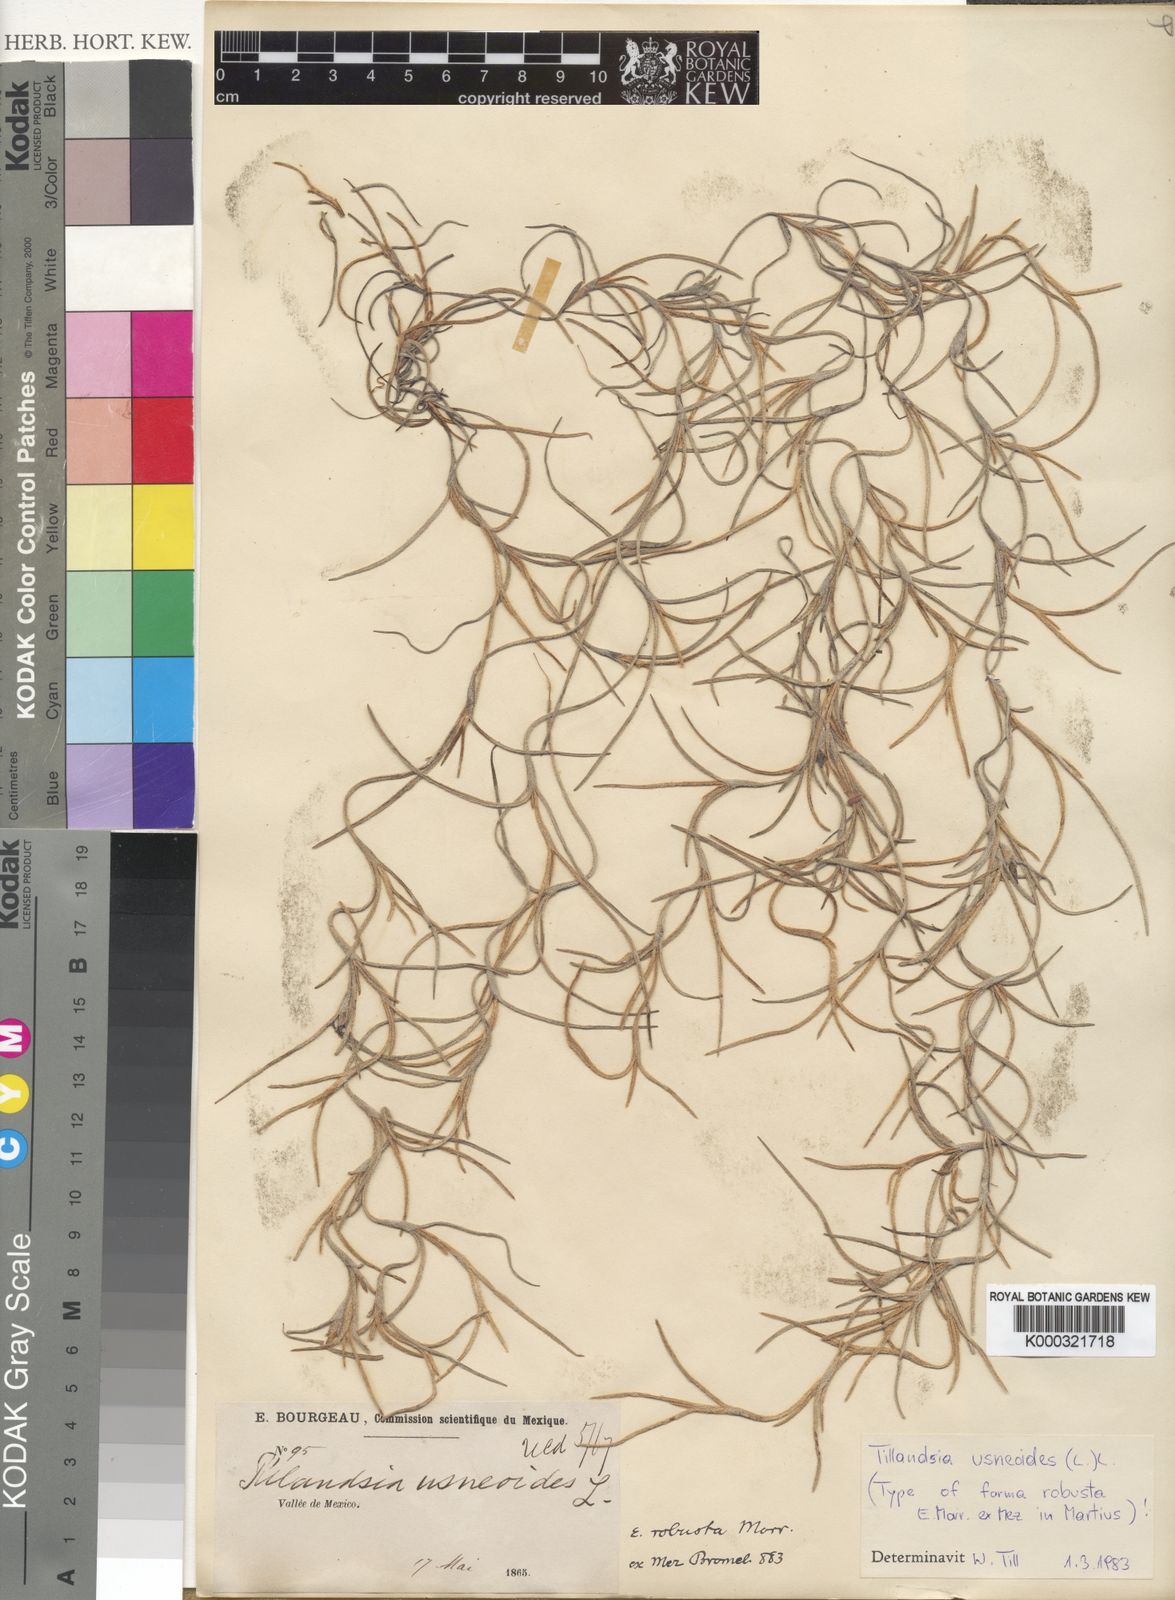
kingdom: Plantae
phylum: Tracheophyta
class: Liliopsida
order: Poales
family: Bromeliaceae
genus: Tillandsia
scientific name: Tillandsia usneoides
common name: Spanish moss
